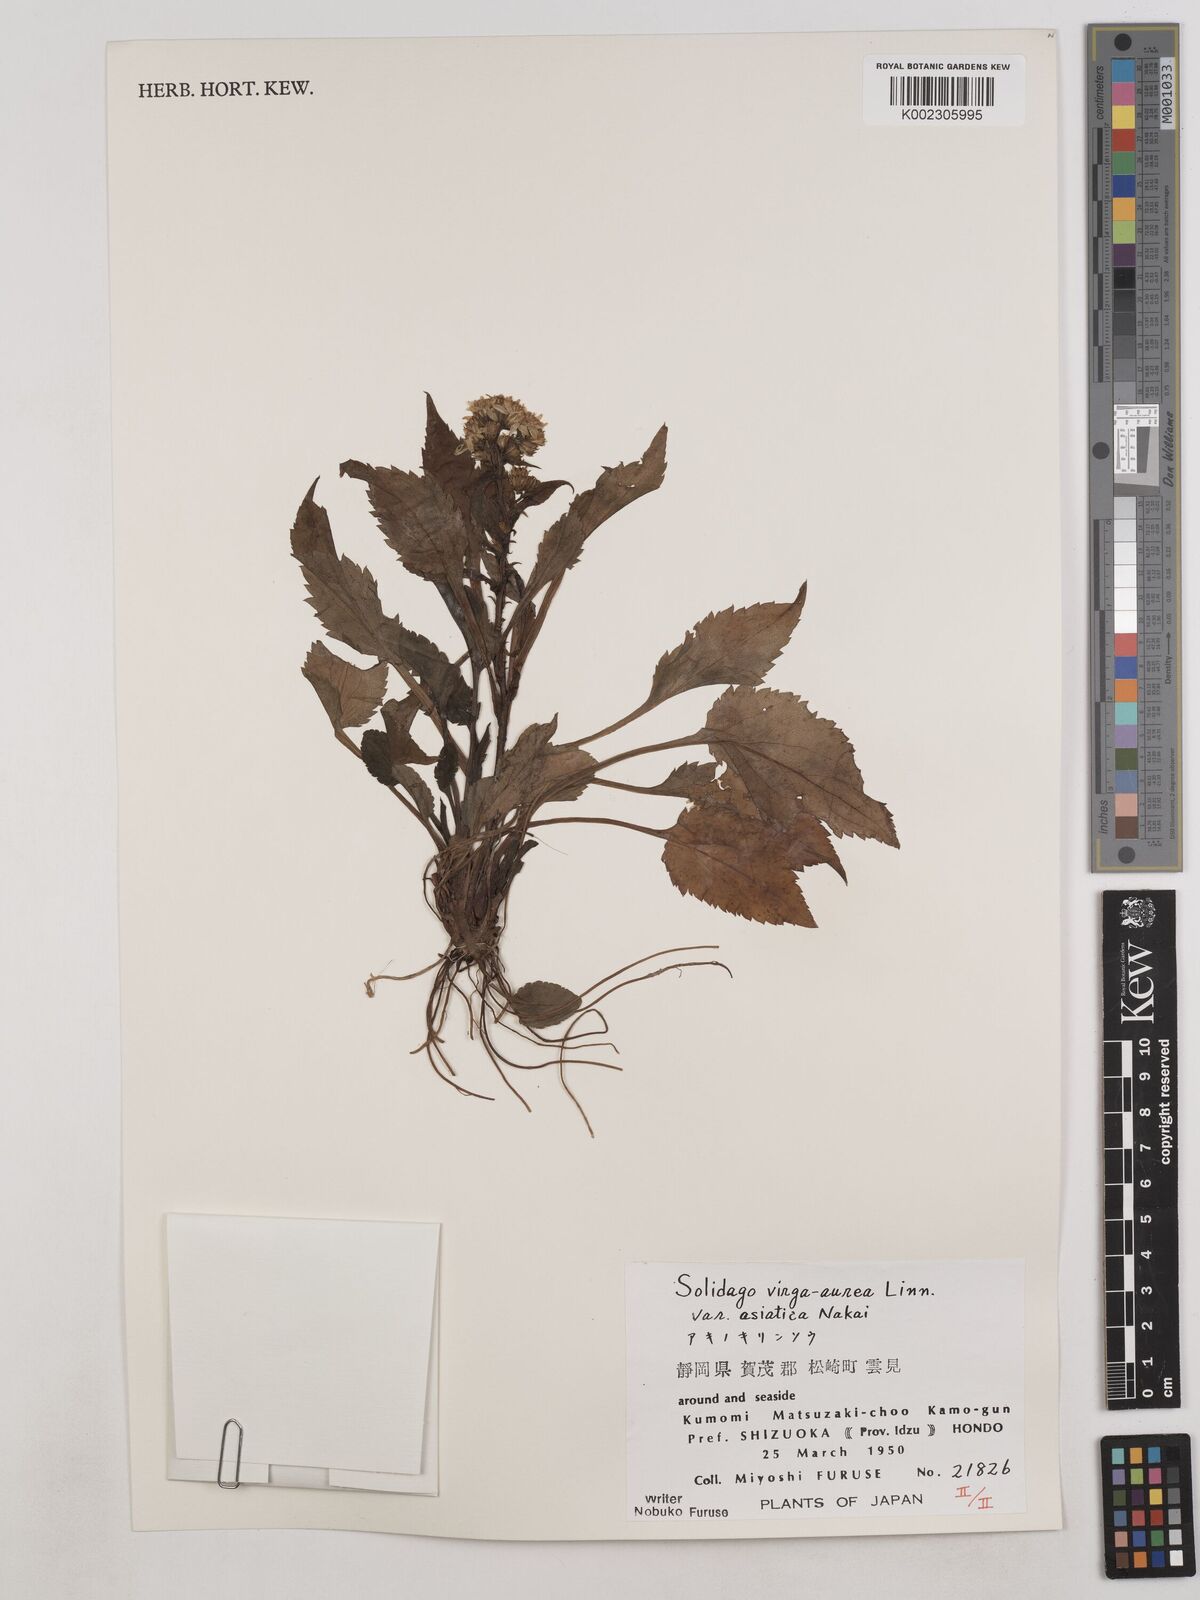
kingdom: Plantae
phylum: Tracheophyta
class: Magnoliopsida
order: Asterales
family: Asteraceae
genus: Solidago
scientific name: Solidago virgaurea
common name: Goldenrod
